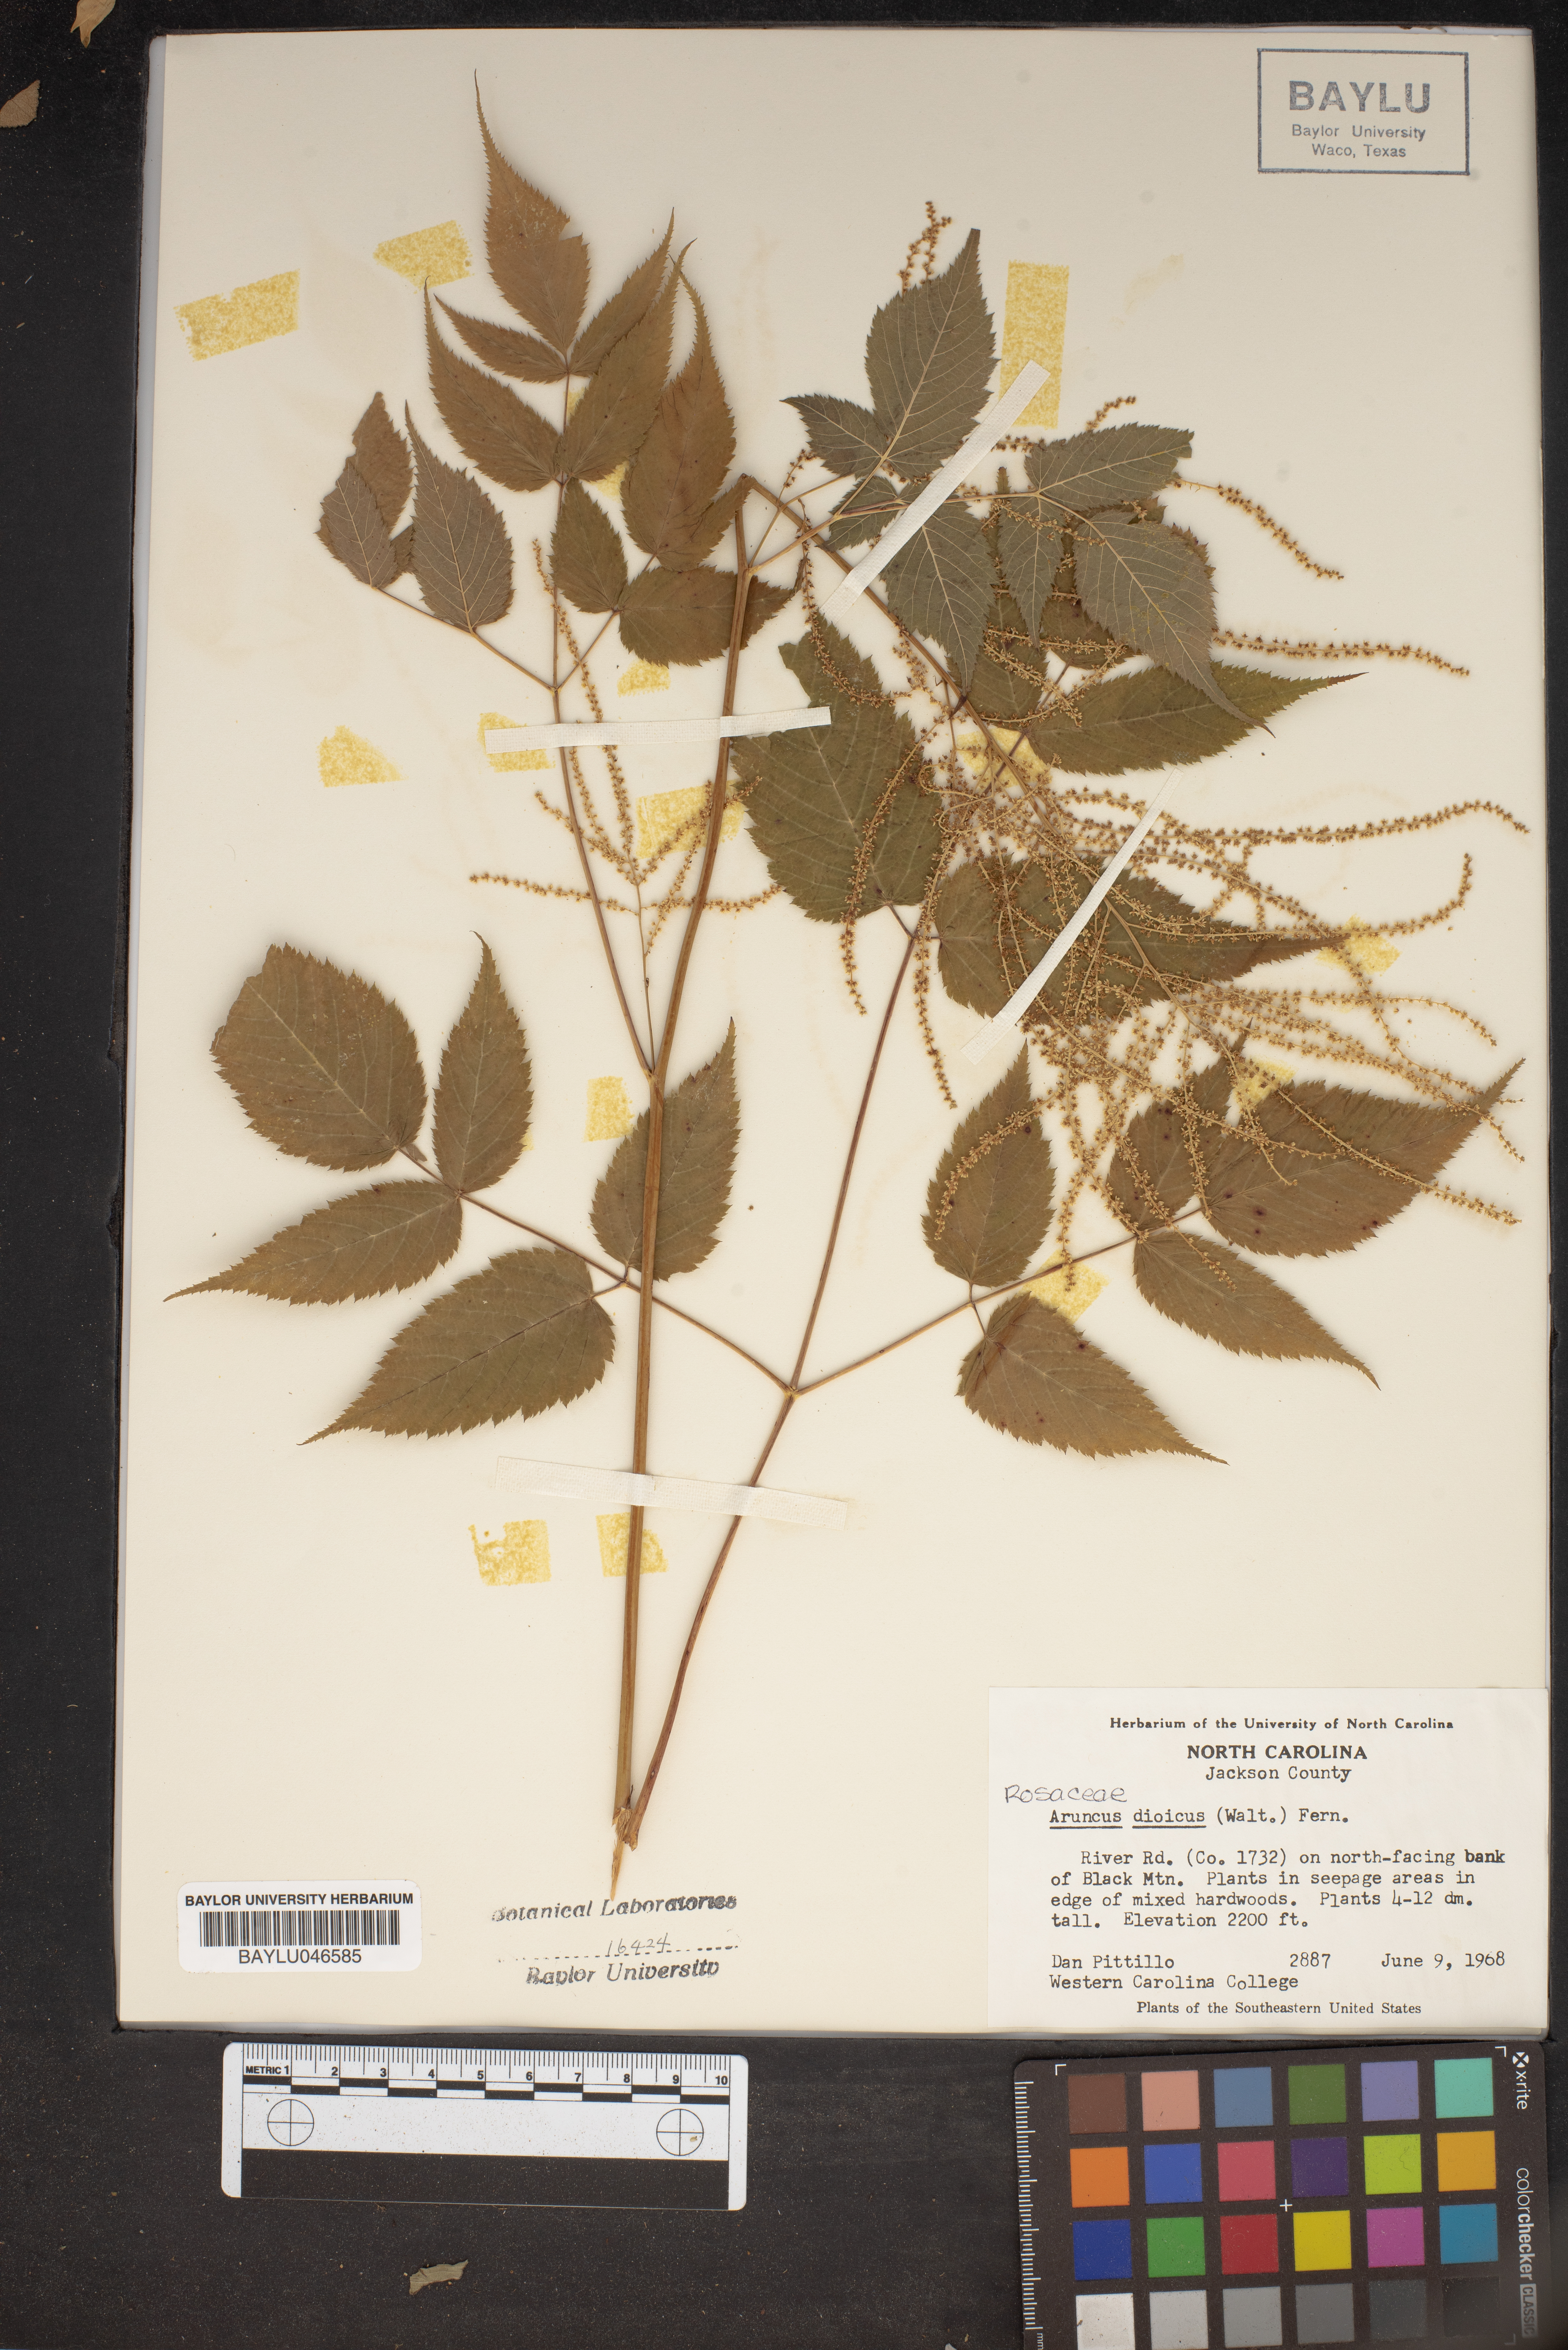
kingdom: Plantae
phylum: Tracheophyta
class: Magnoliopsida
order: Rosales
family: Rosaceae
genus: Aruncus
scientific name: Aruncus dioicus
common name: Buck's-beard
